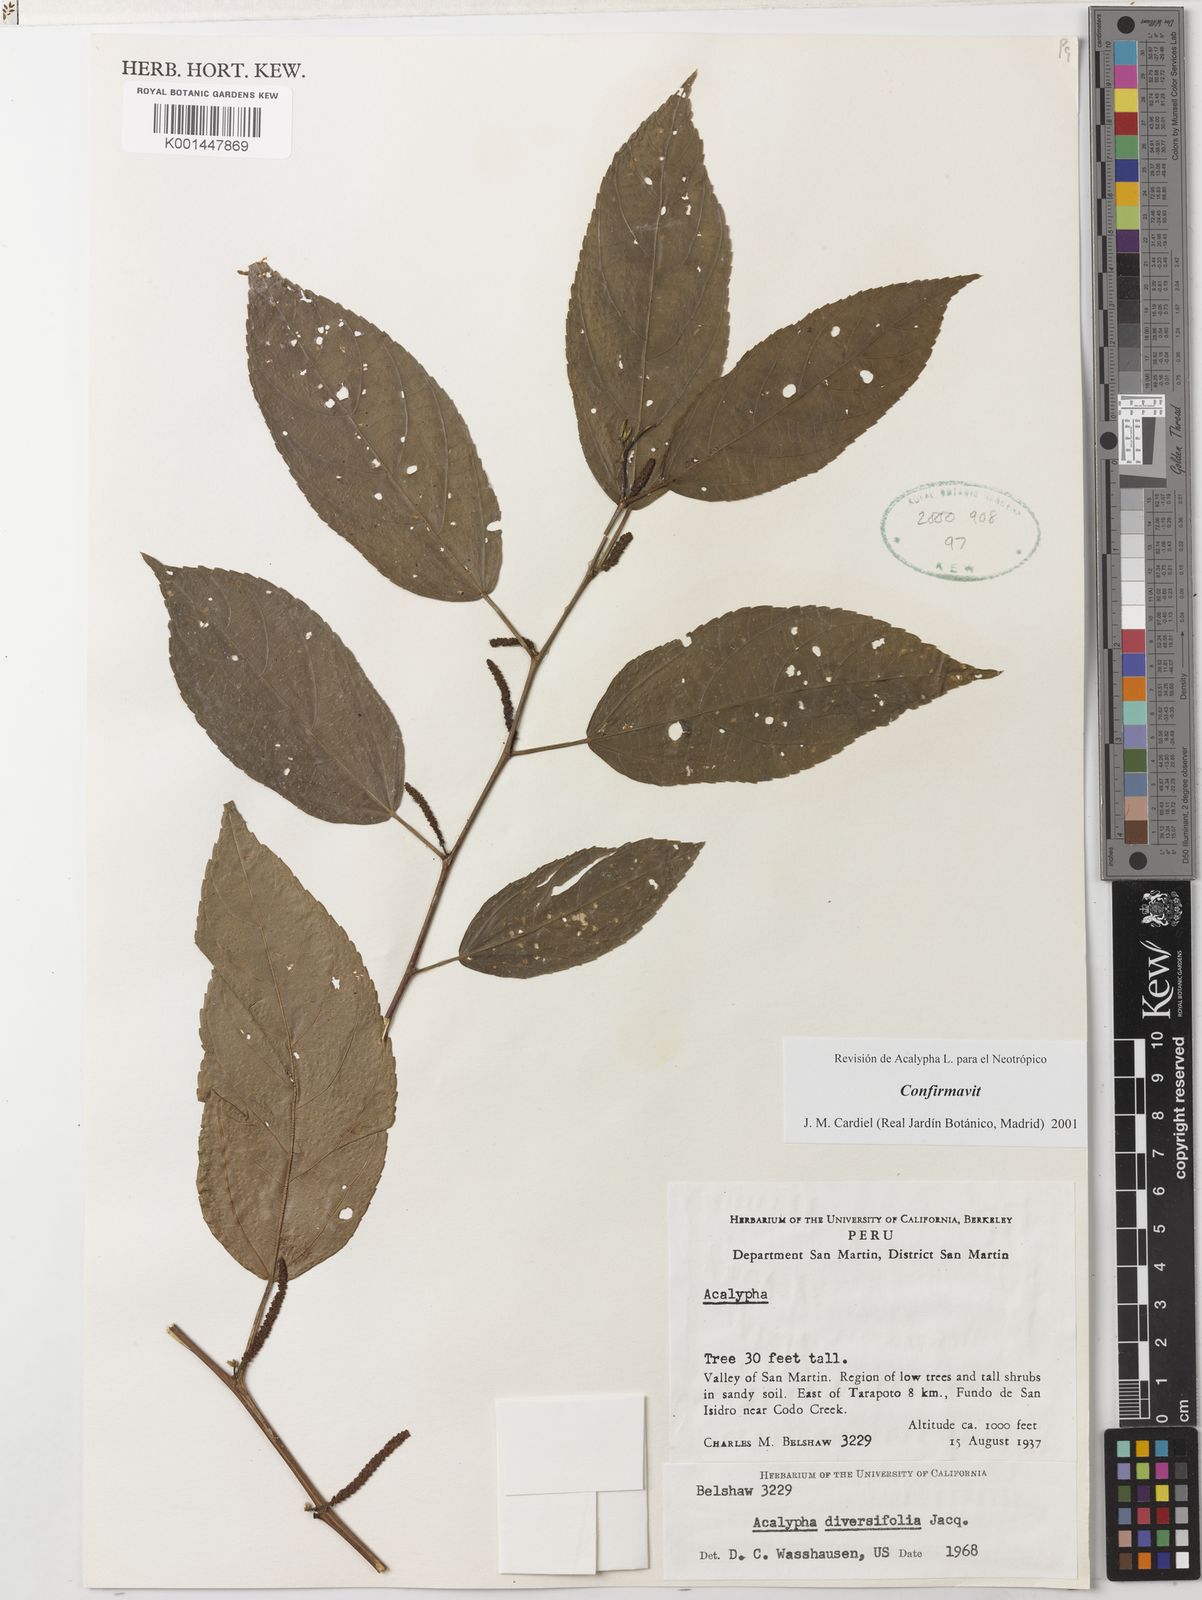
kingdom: Plantae
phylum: Tracheophyta
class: Magnoliopsida
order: Malpighiales
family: Euphorbiaceae
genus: Acalypha
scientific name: Acalypha
